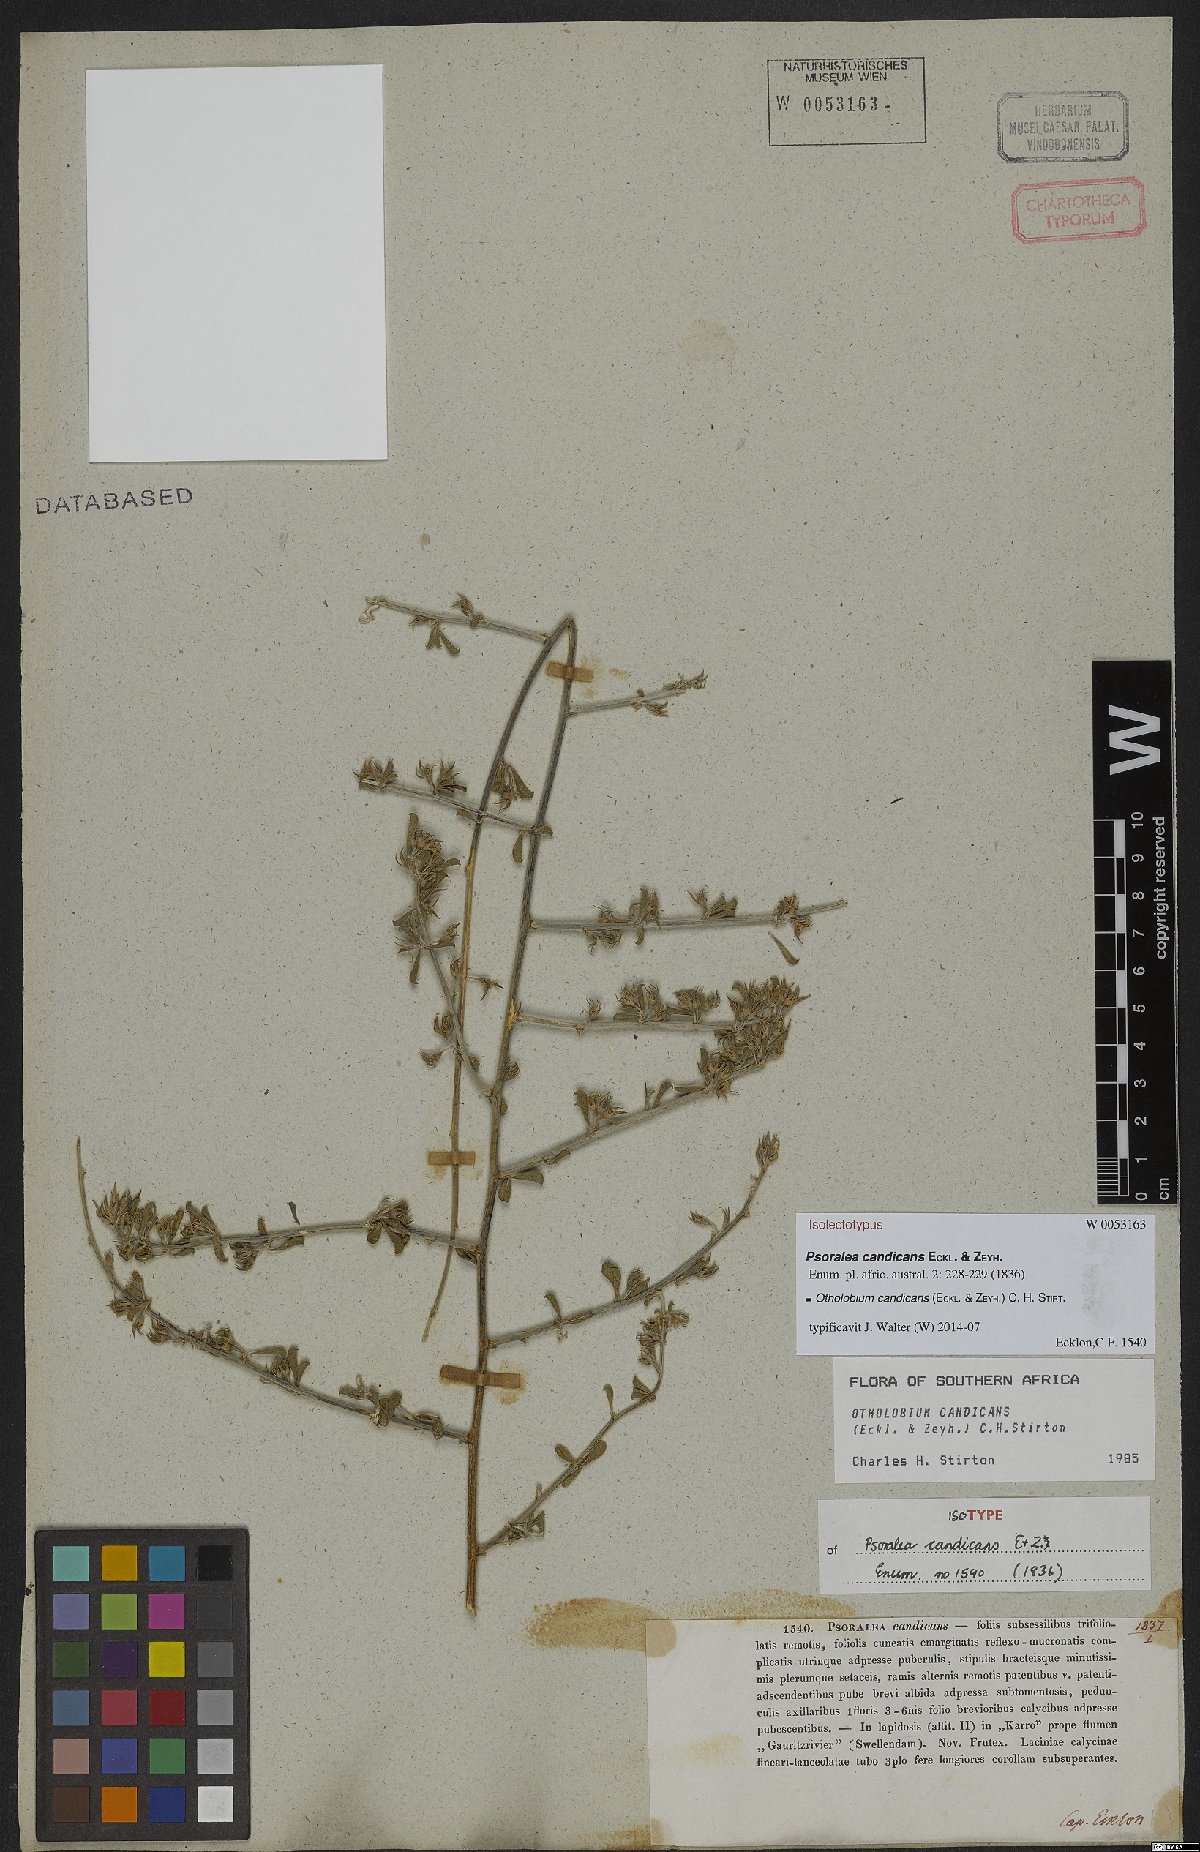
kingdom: Plantae
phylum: Tracheophyta
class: Magnoliopsida
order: Fabales
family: Fabaceae
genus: Psoralea
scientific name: Psoralea candicans
